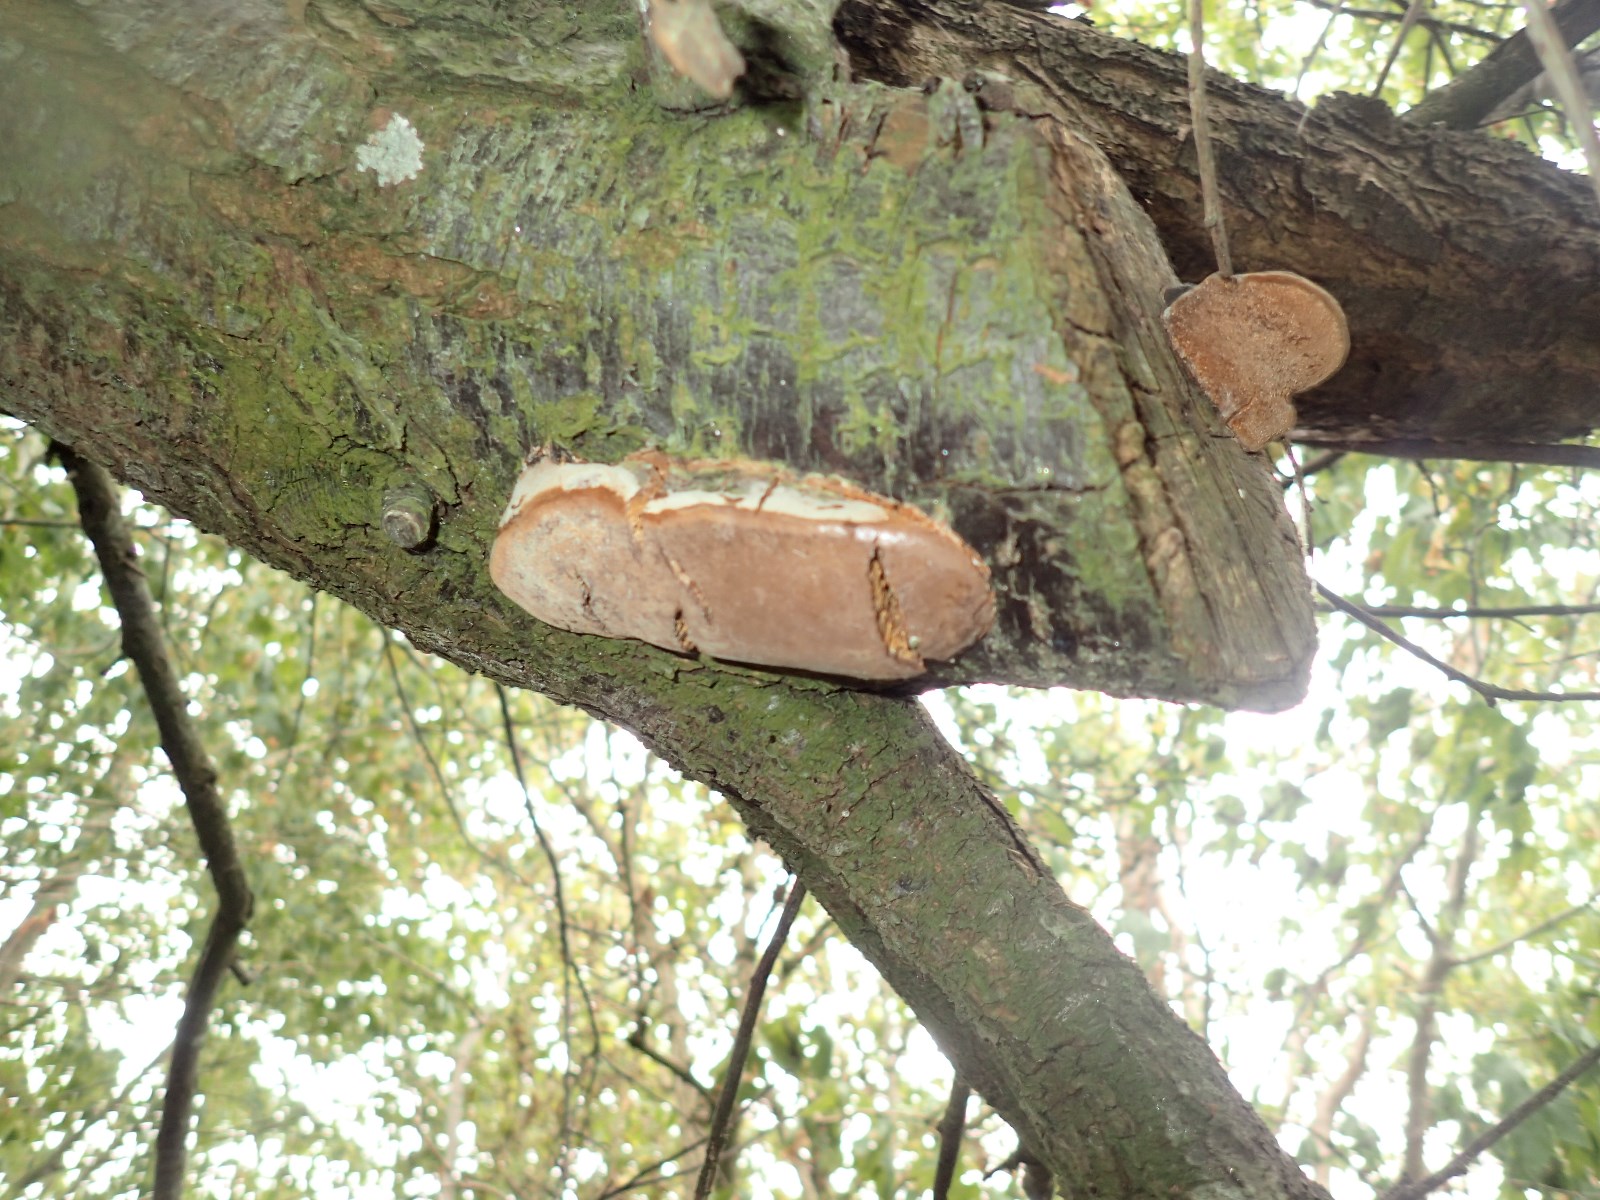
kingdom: Fungi
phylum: Basidiomycota
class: Agaricomycetes
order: Hymenochaetales
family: Hymenochaetaceae
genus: Phellinus
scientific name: Phellinus pomaceus
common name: blomme-ildporesvamp
